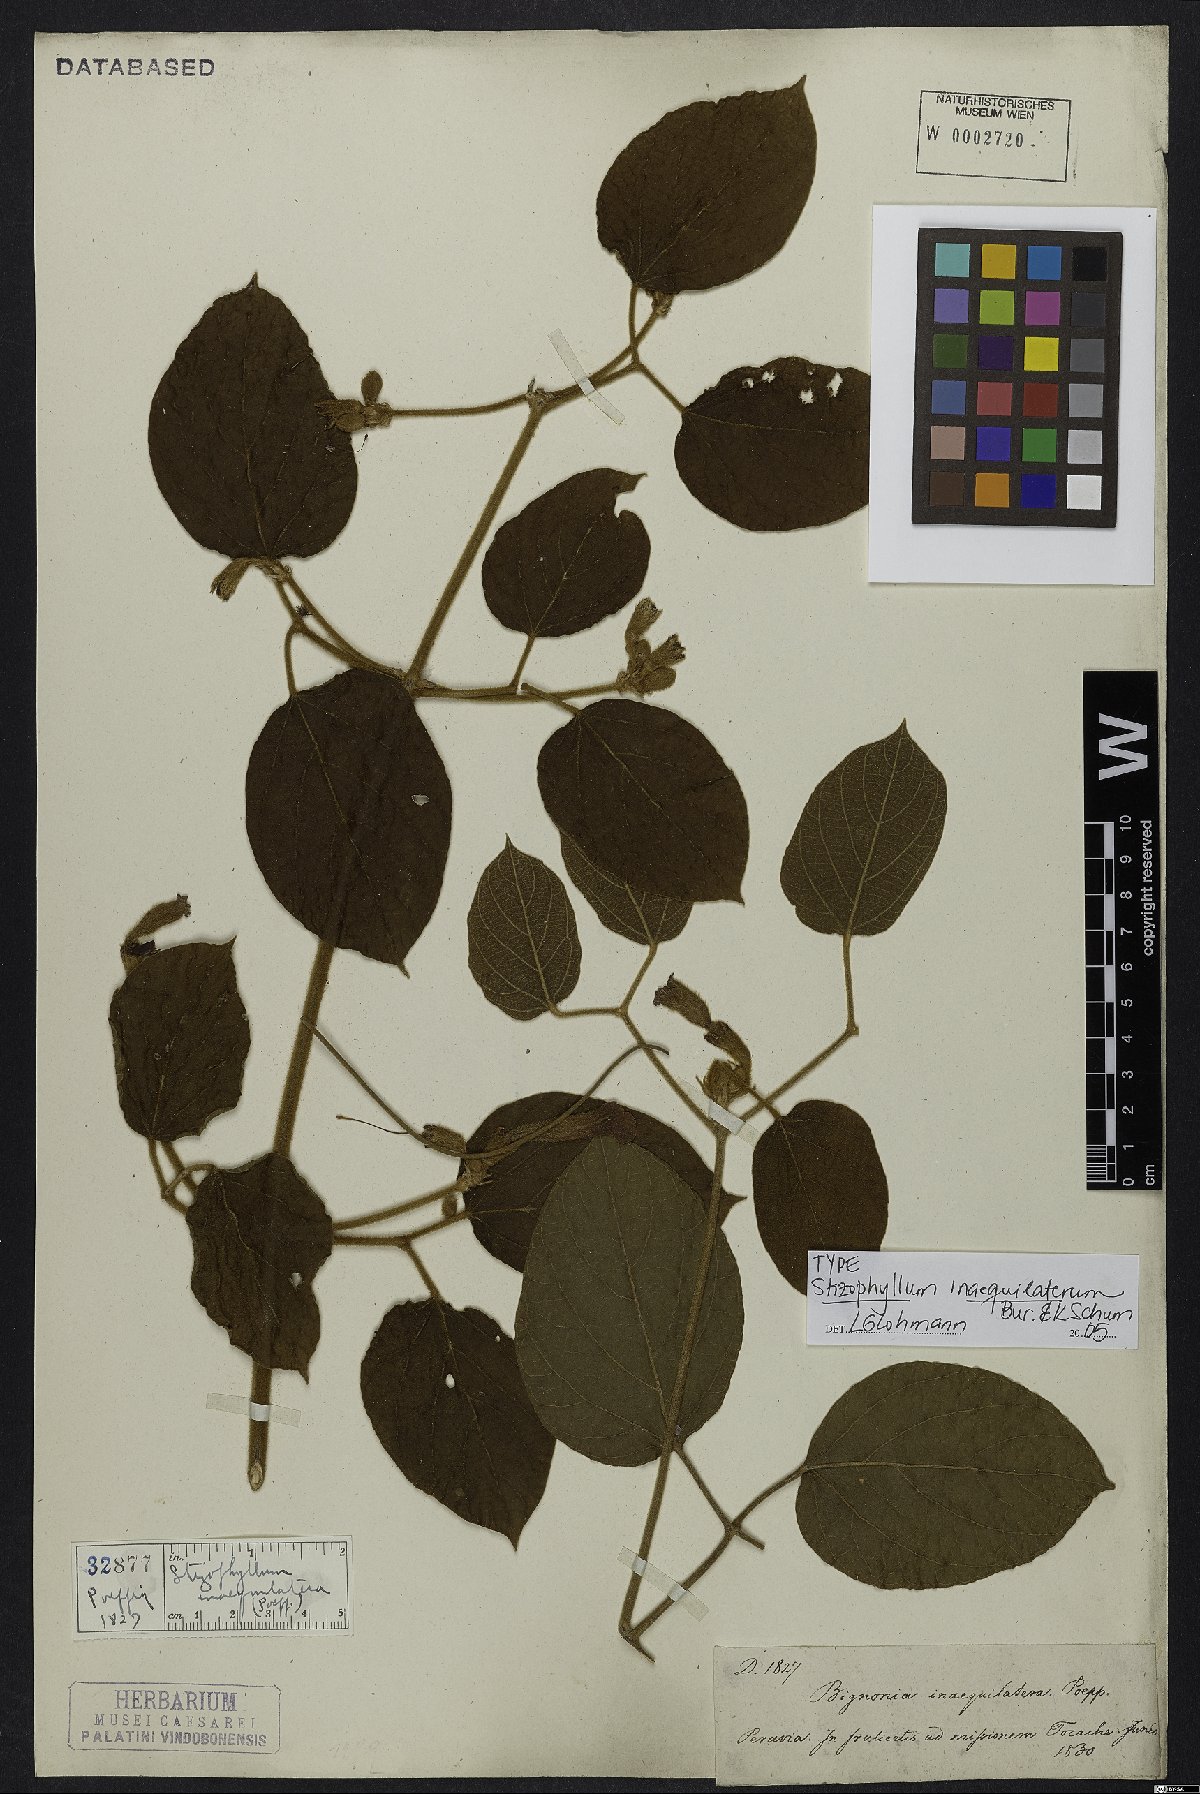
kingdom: Plantae
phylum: Tracheophyta
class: Magnoliopsida
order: Lamiales
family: Bignoniaceae
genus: Stizophyllum
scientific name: Stizophyllum inaequilaterum
